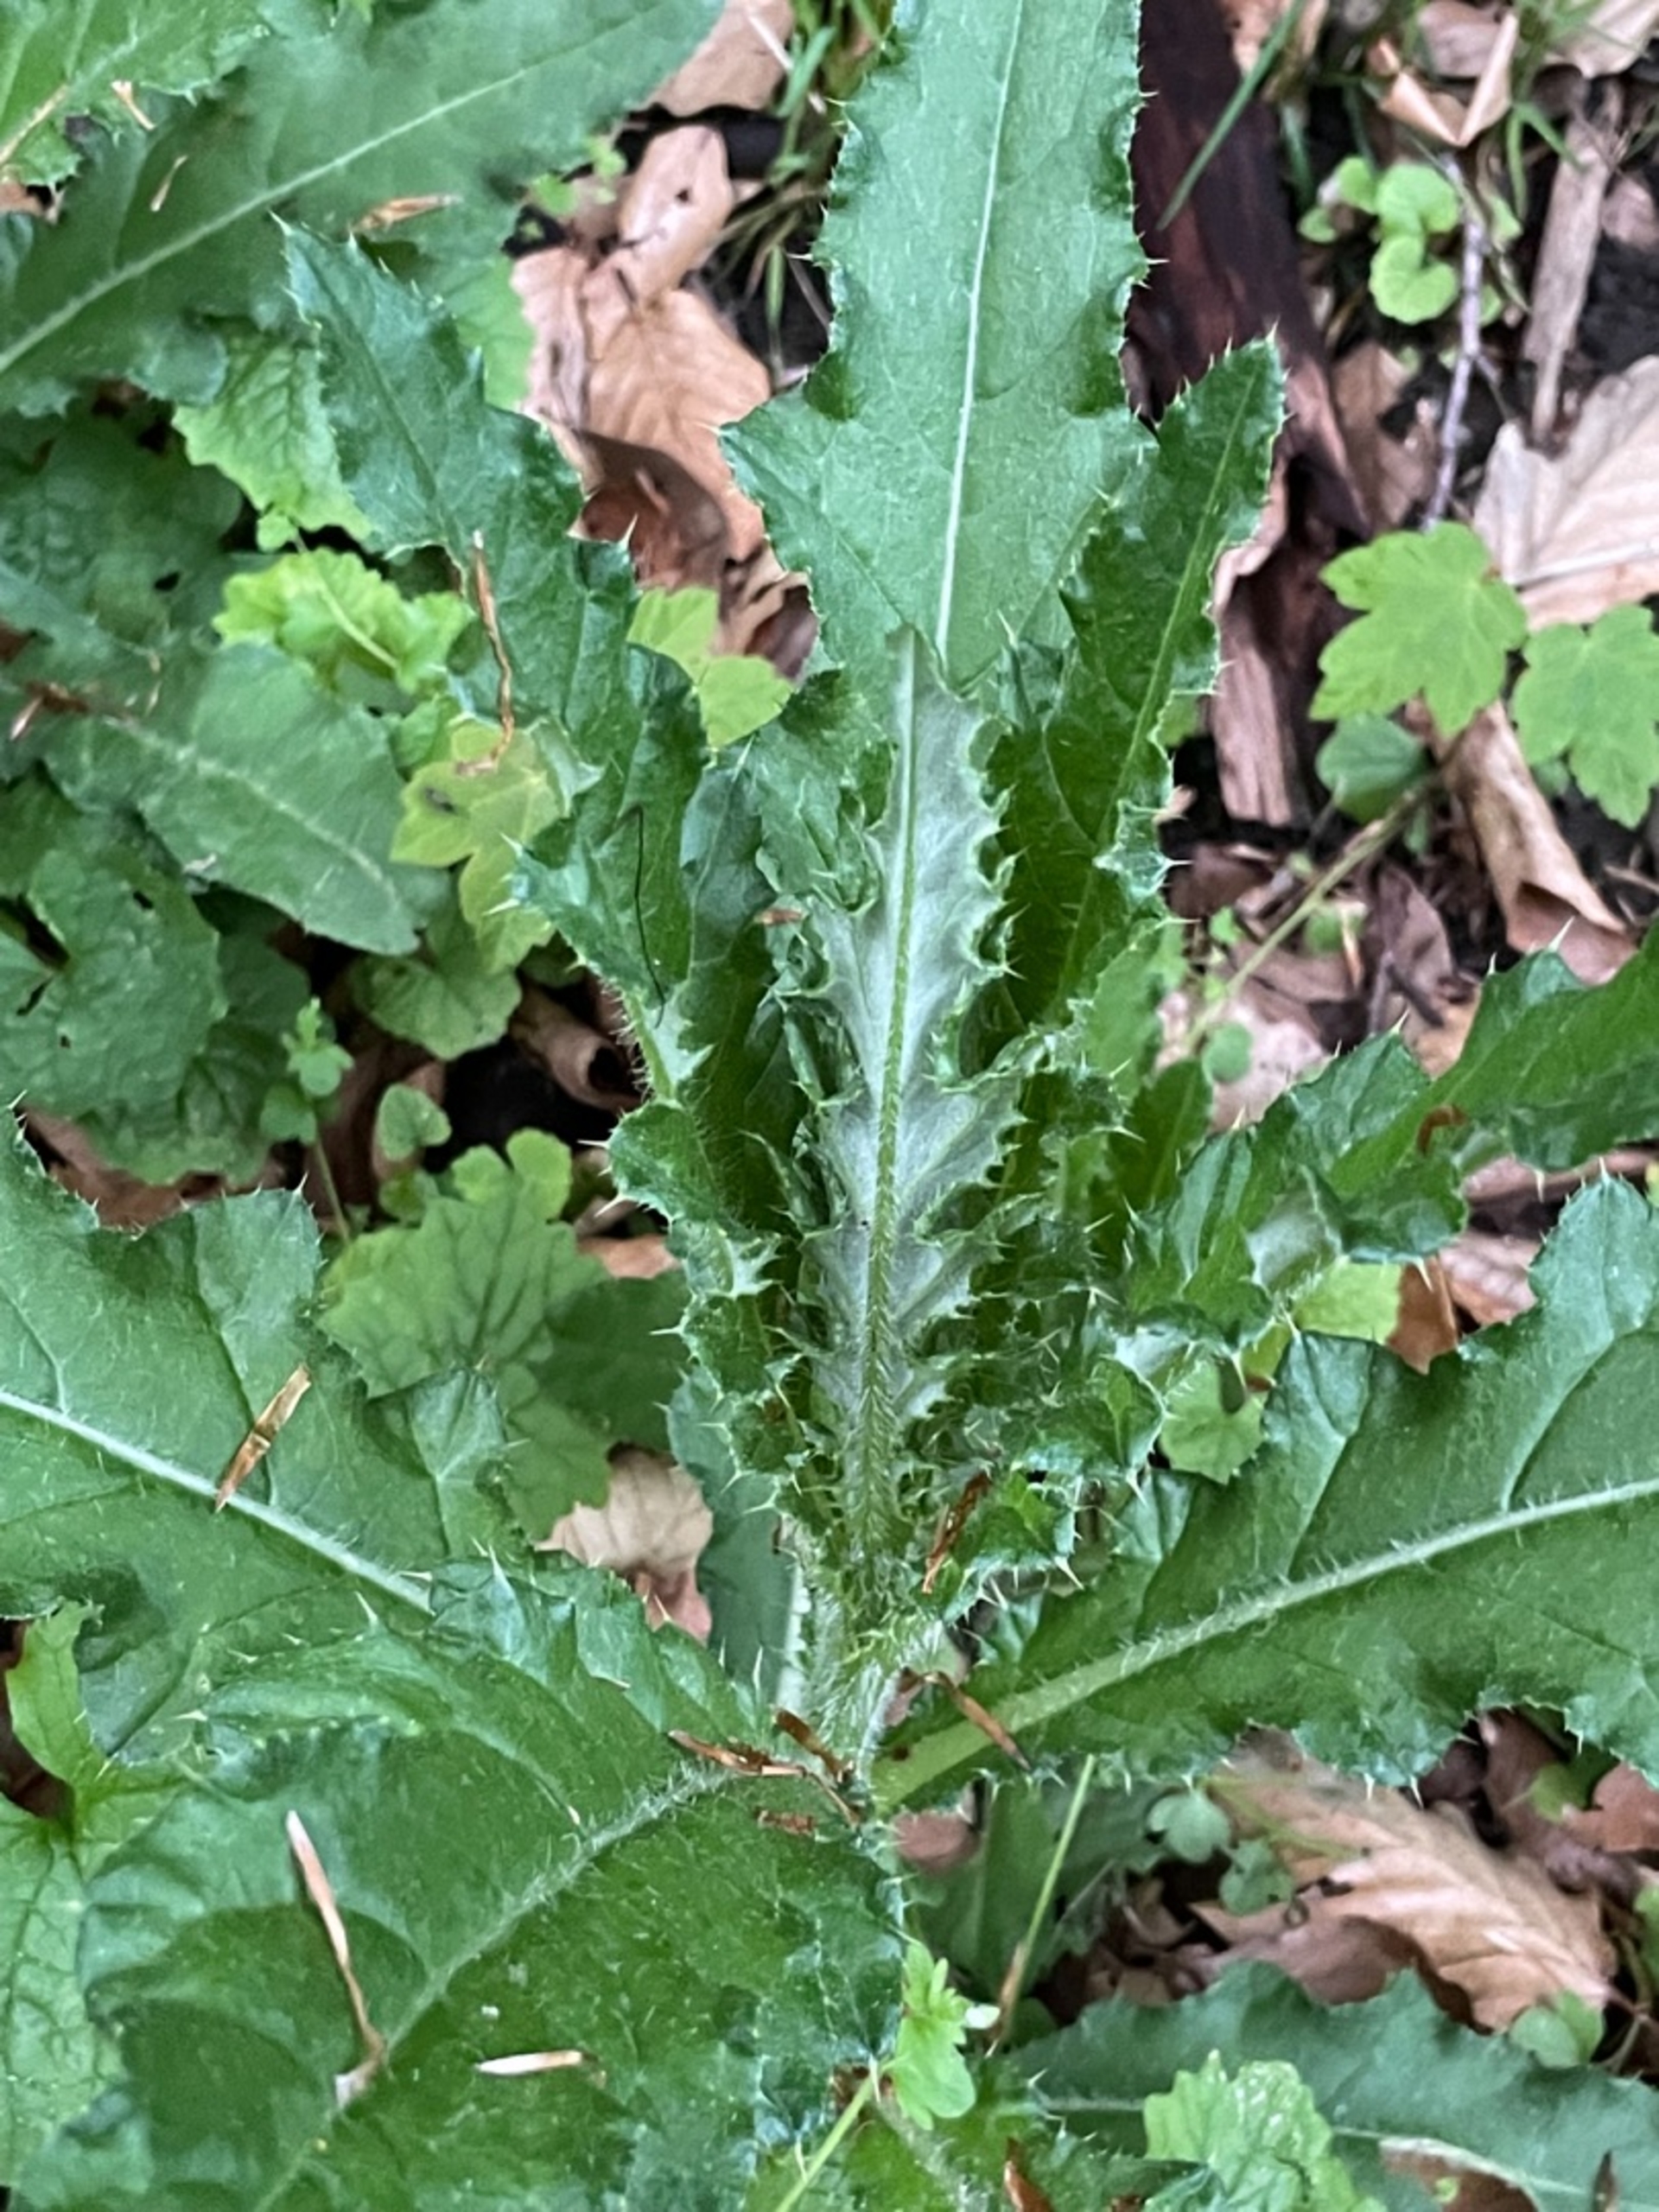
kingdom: Plantae
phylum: Tracheophyta
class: Magnoliopsida
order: Asterales
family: Asteraceae
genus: Cirsium
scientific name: Cirsium arvense
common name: Ager-tidsel
